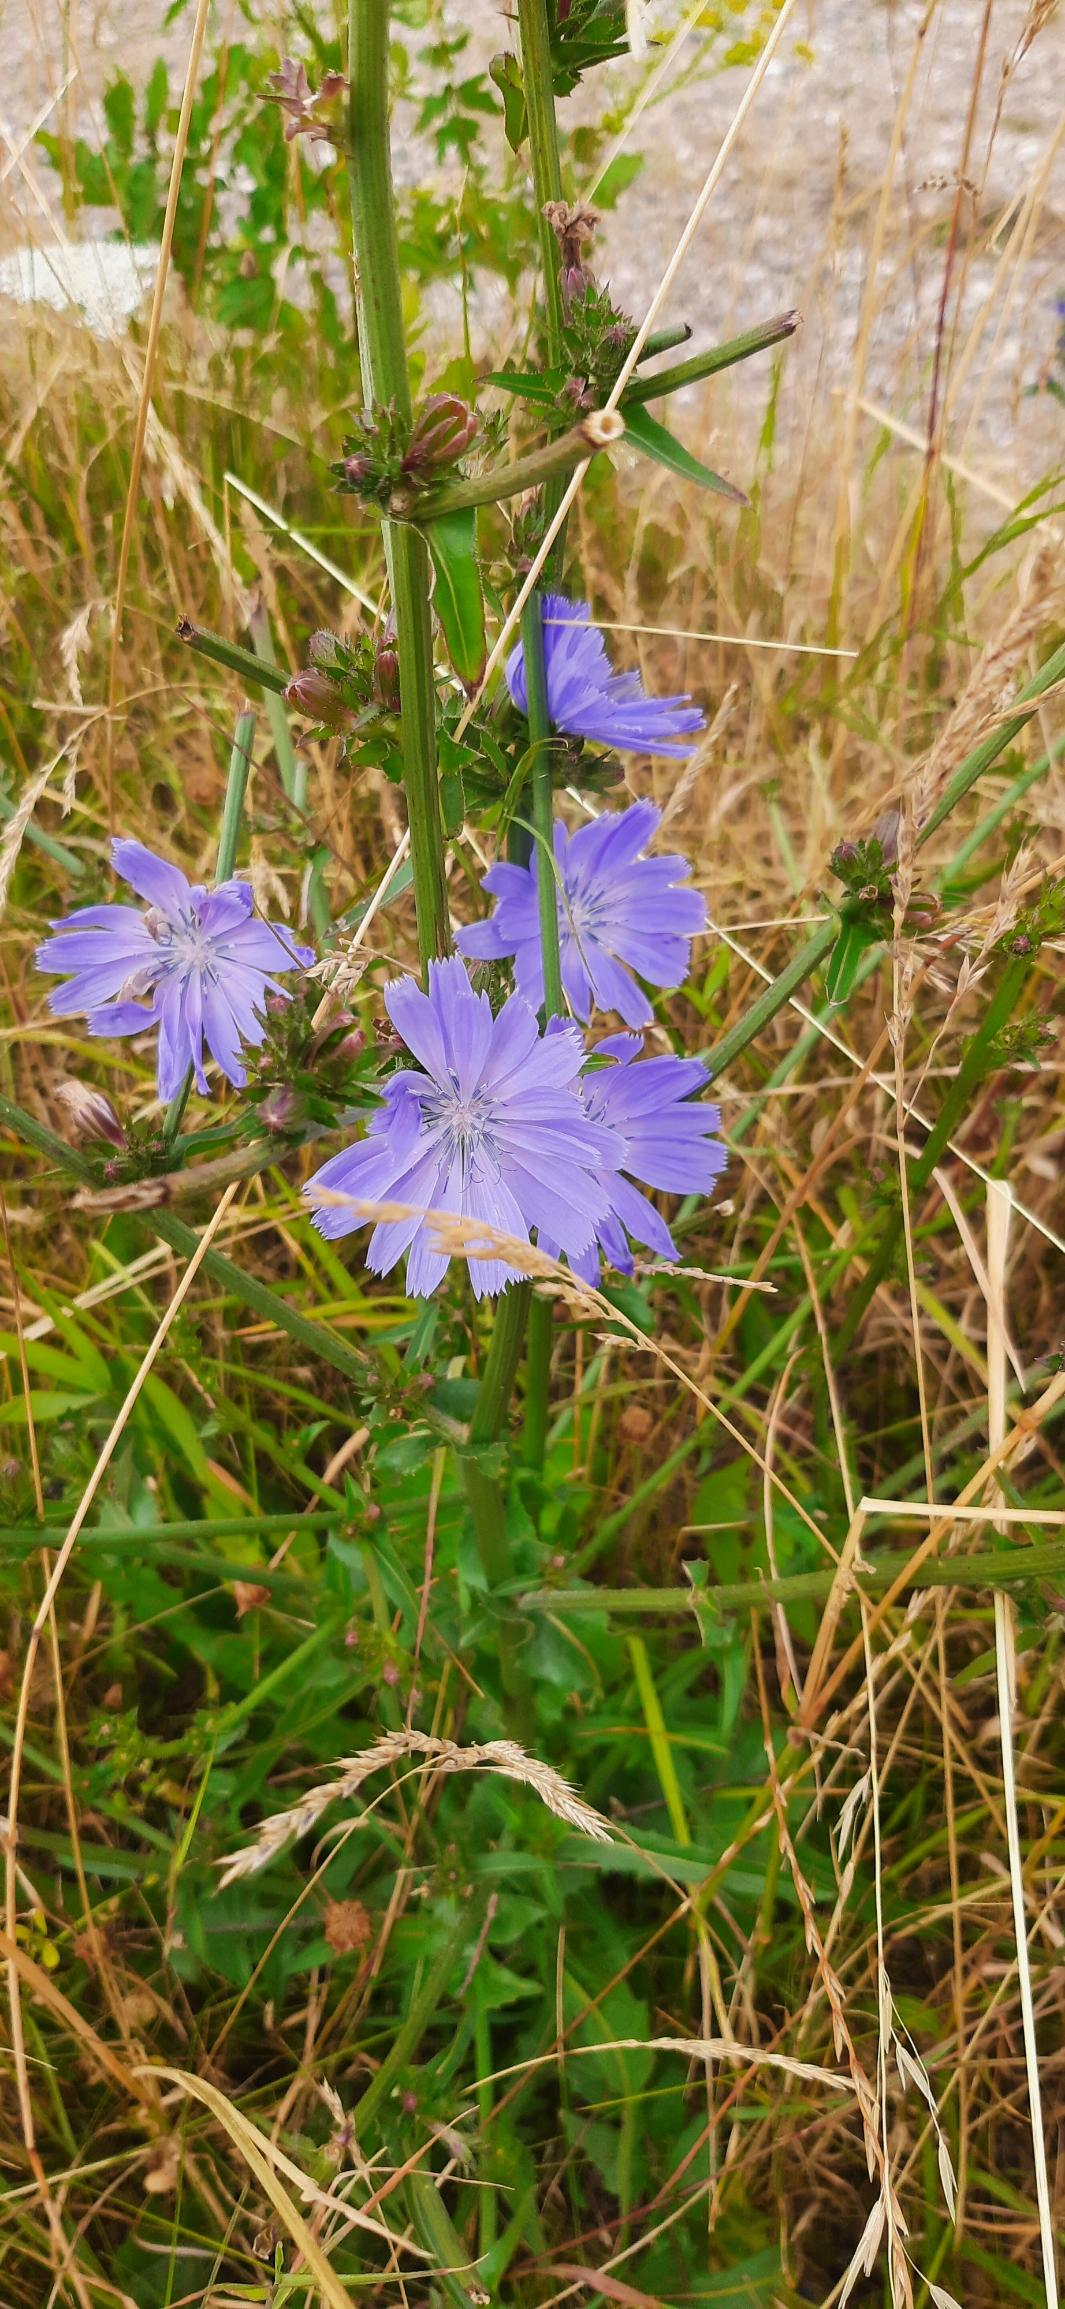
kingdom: Plantae
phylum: Tracheophyta
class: Magnoliopsida
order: Asterales
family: Asteraceae
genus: Cichorium
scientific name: Cichorium intybus
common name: Cikorie
